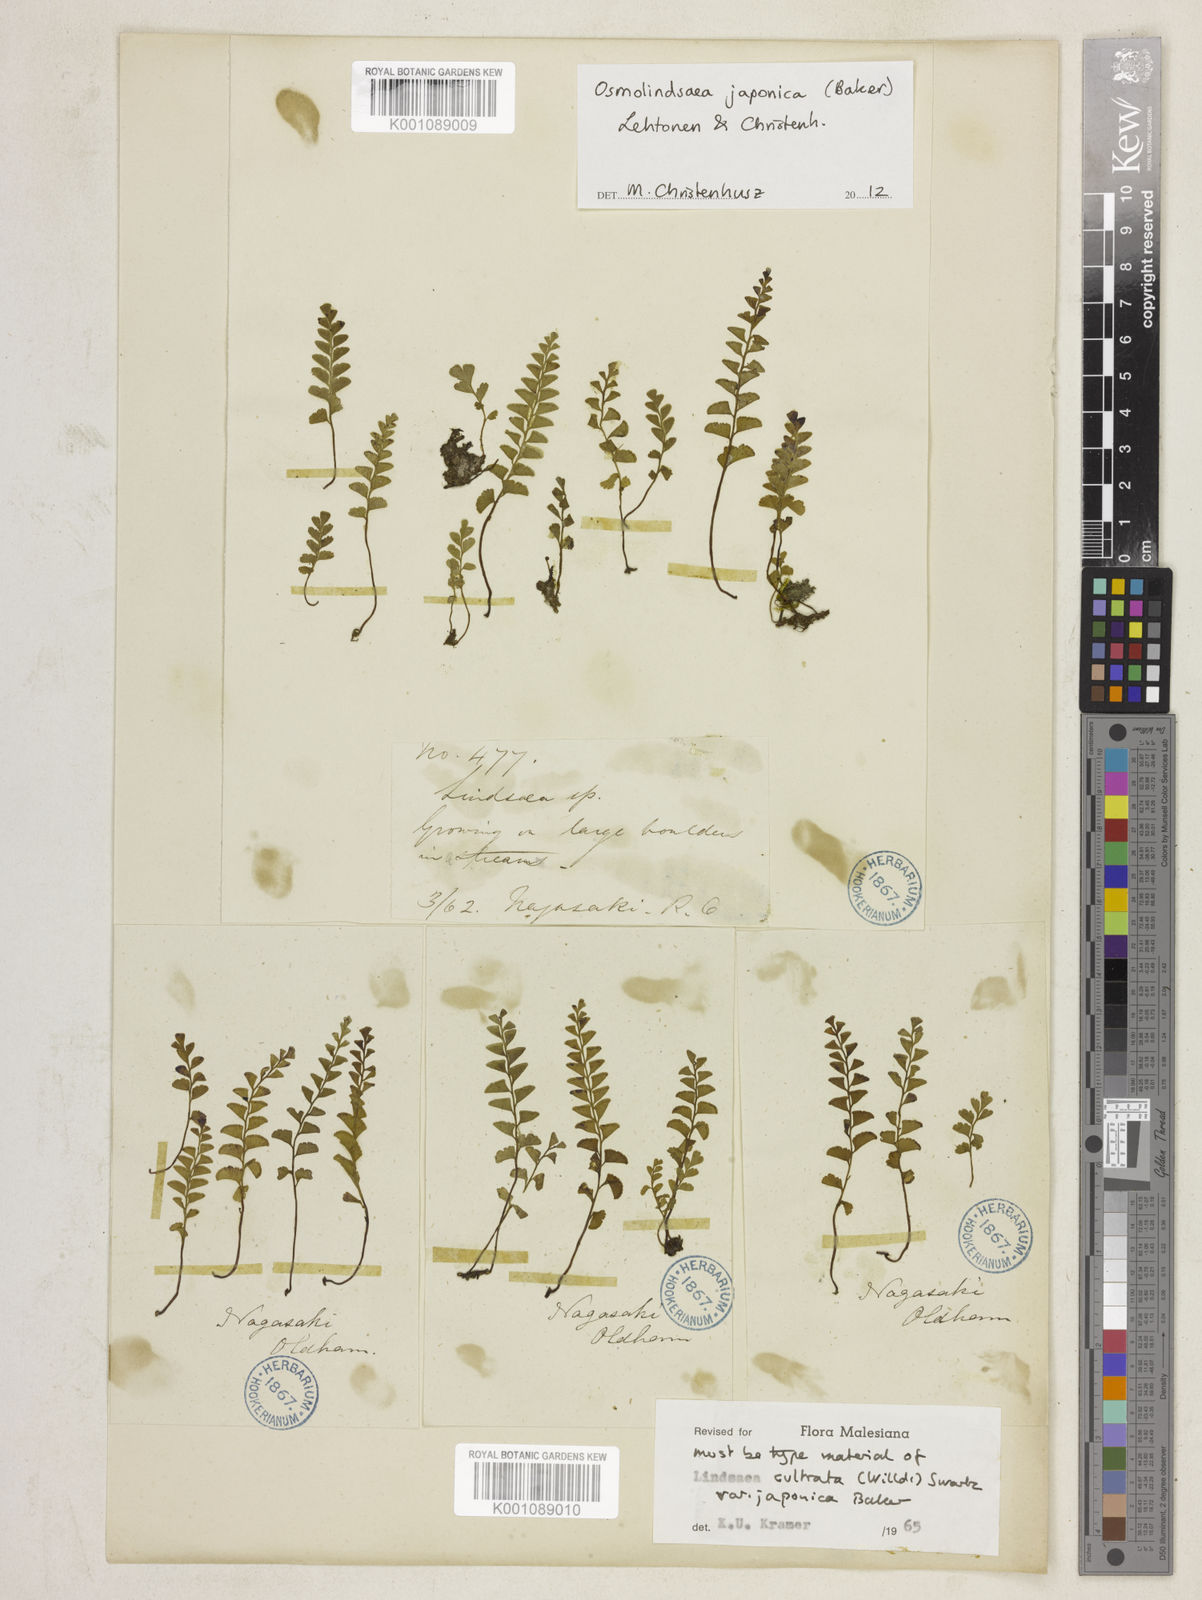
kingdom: Plantae
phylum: Tracheophyta
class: Polypodiopsida
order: Polypodiales
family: Lindsaeaceae
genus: Osmolindsaea
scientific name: Osmolindsaea japonica
